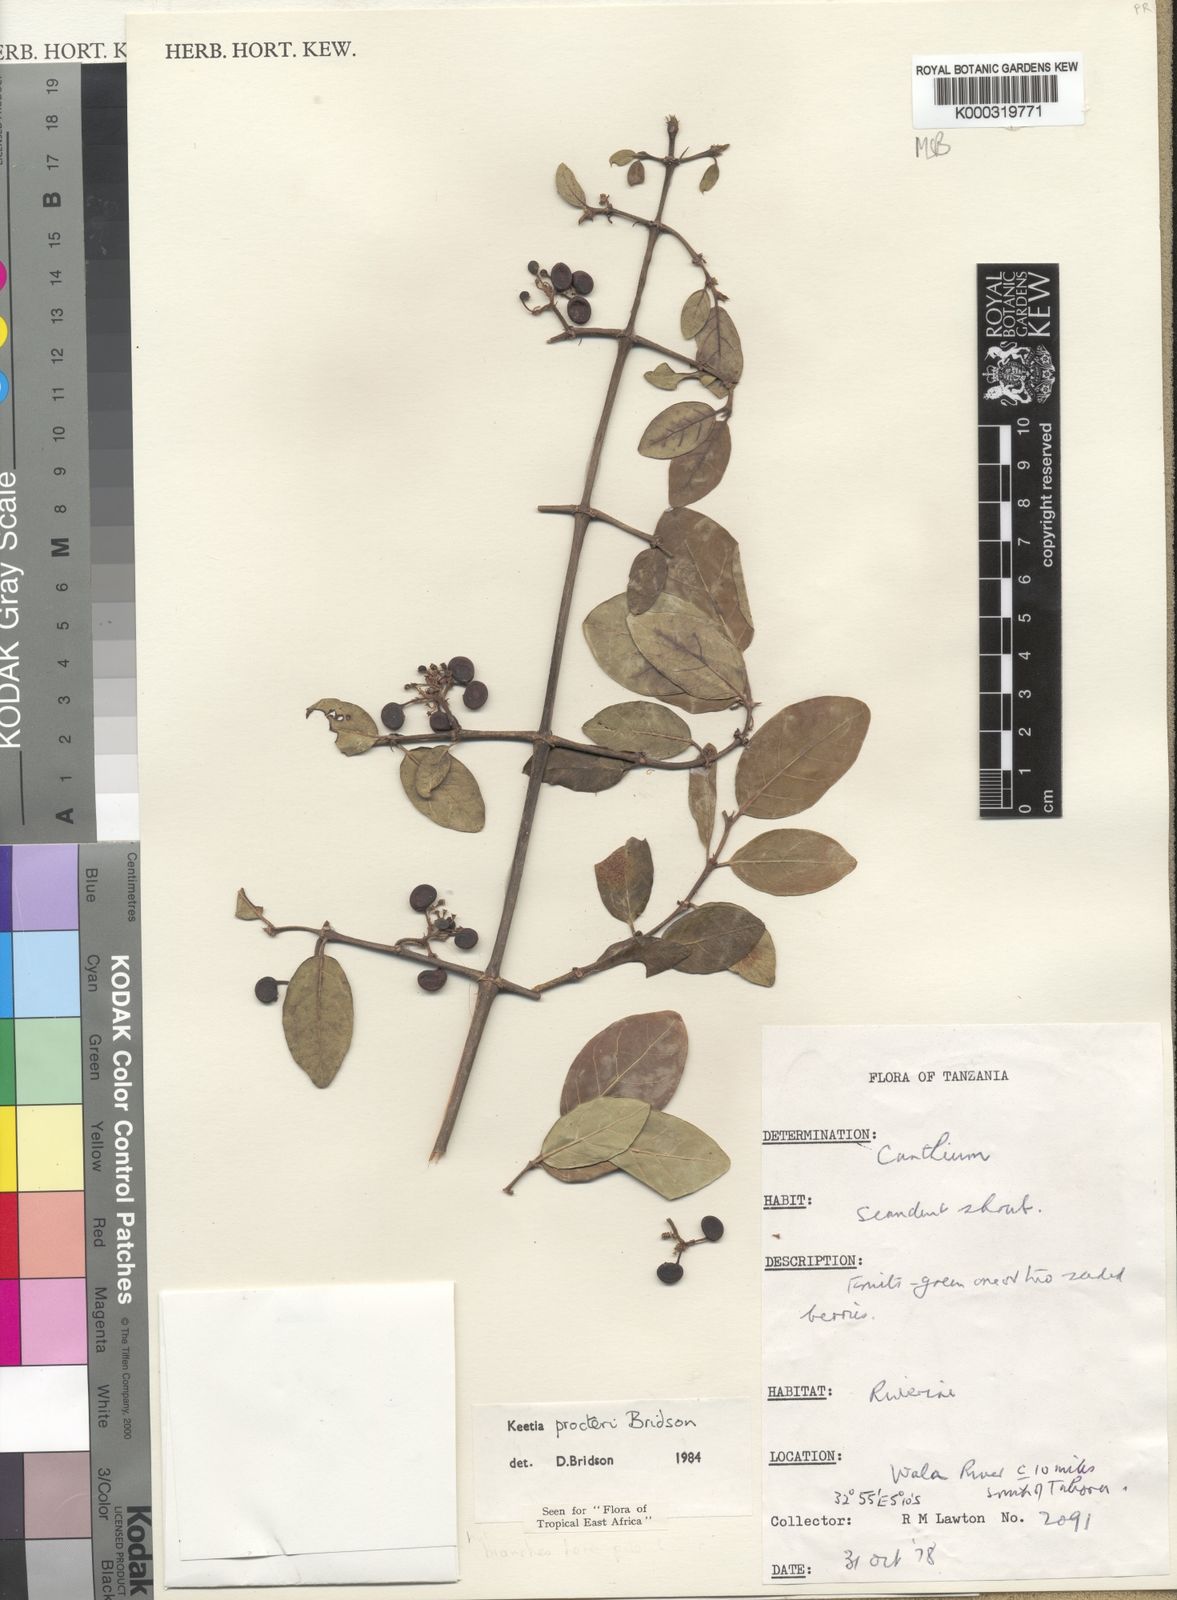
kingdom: Plantae
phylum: Tracheophyta
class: Magnoliopsida
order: Gentianales
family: Rubiaceae
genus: Keetia
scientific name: Keetia procteri
